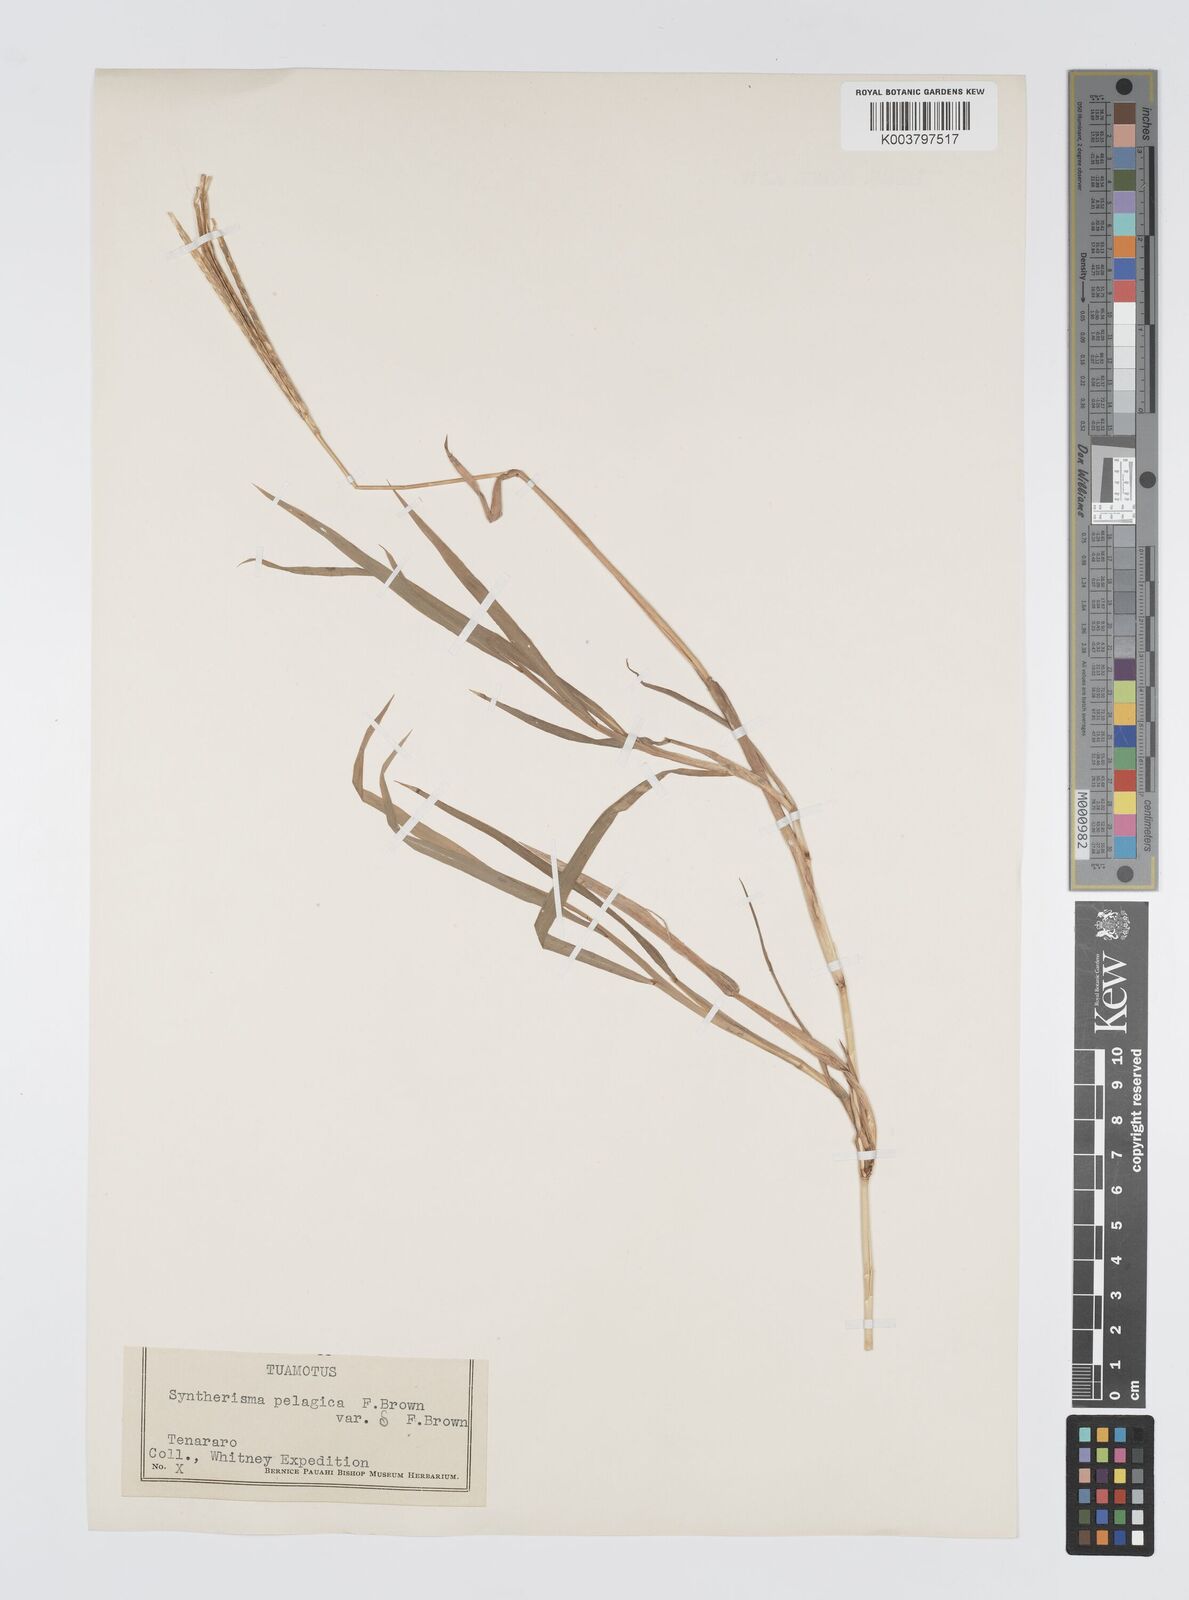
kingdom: Plantae
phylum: Tracheophyta
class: Liliopsida
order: Poales
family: Poaceae
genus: Digitaria
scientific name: Digitaria stenotaphrodes
